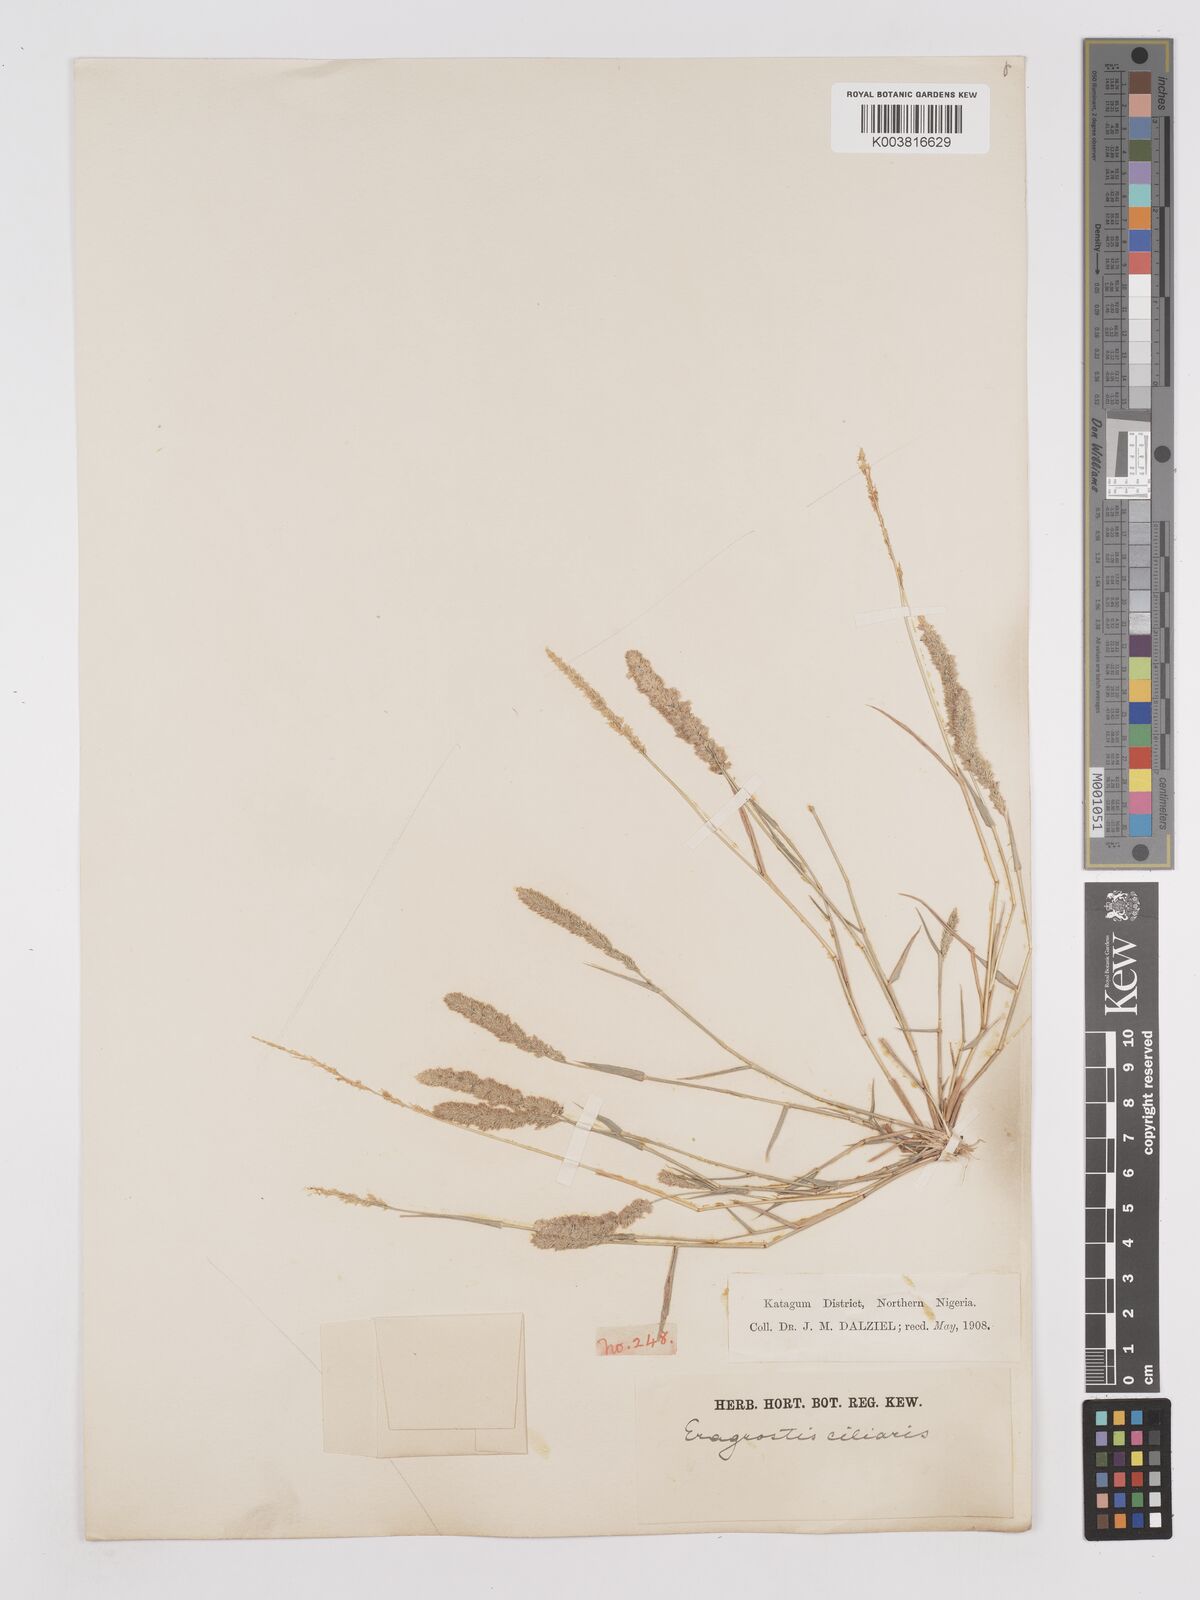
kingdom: Plantae
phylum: Tracheophyta
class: Liliopsida
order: Poales
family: Poaceae
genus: Eragrostis
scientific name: Eragrostis ciliaris
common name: Gophertail lovegrass
